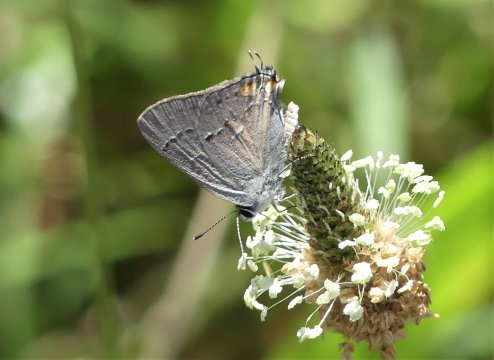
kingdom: Animalia
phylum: Arthropoda
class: Insecta
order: Lepidoptera
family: Lycaenidae
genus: Strymon
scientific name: Strymon melinus
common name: Gray Hairstreak
